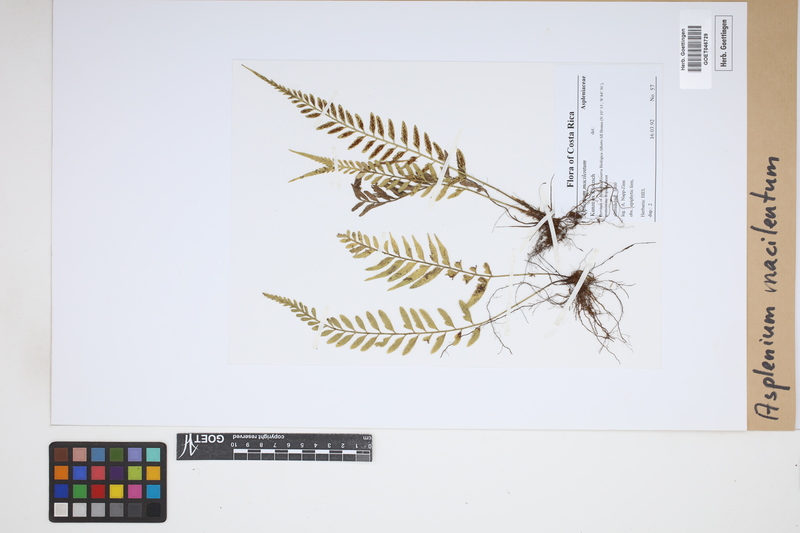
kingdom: Plantae
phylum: Tracheophyta
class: Polypodiopsida
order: Polypodiales
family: Aspleniaceae
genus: Asplenium
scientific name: Asplenium auritum
